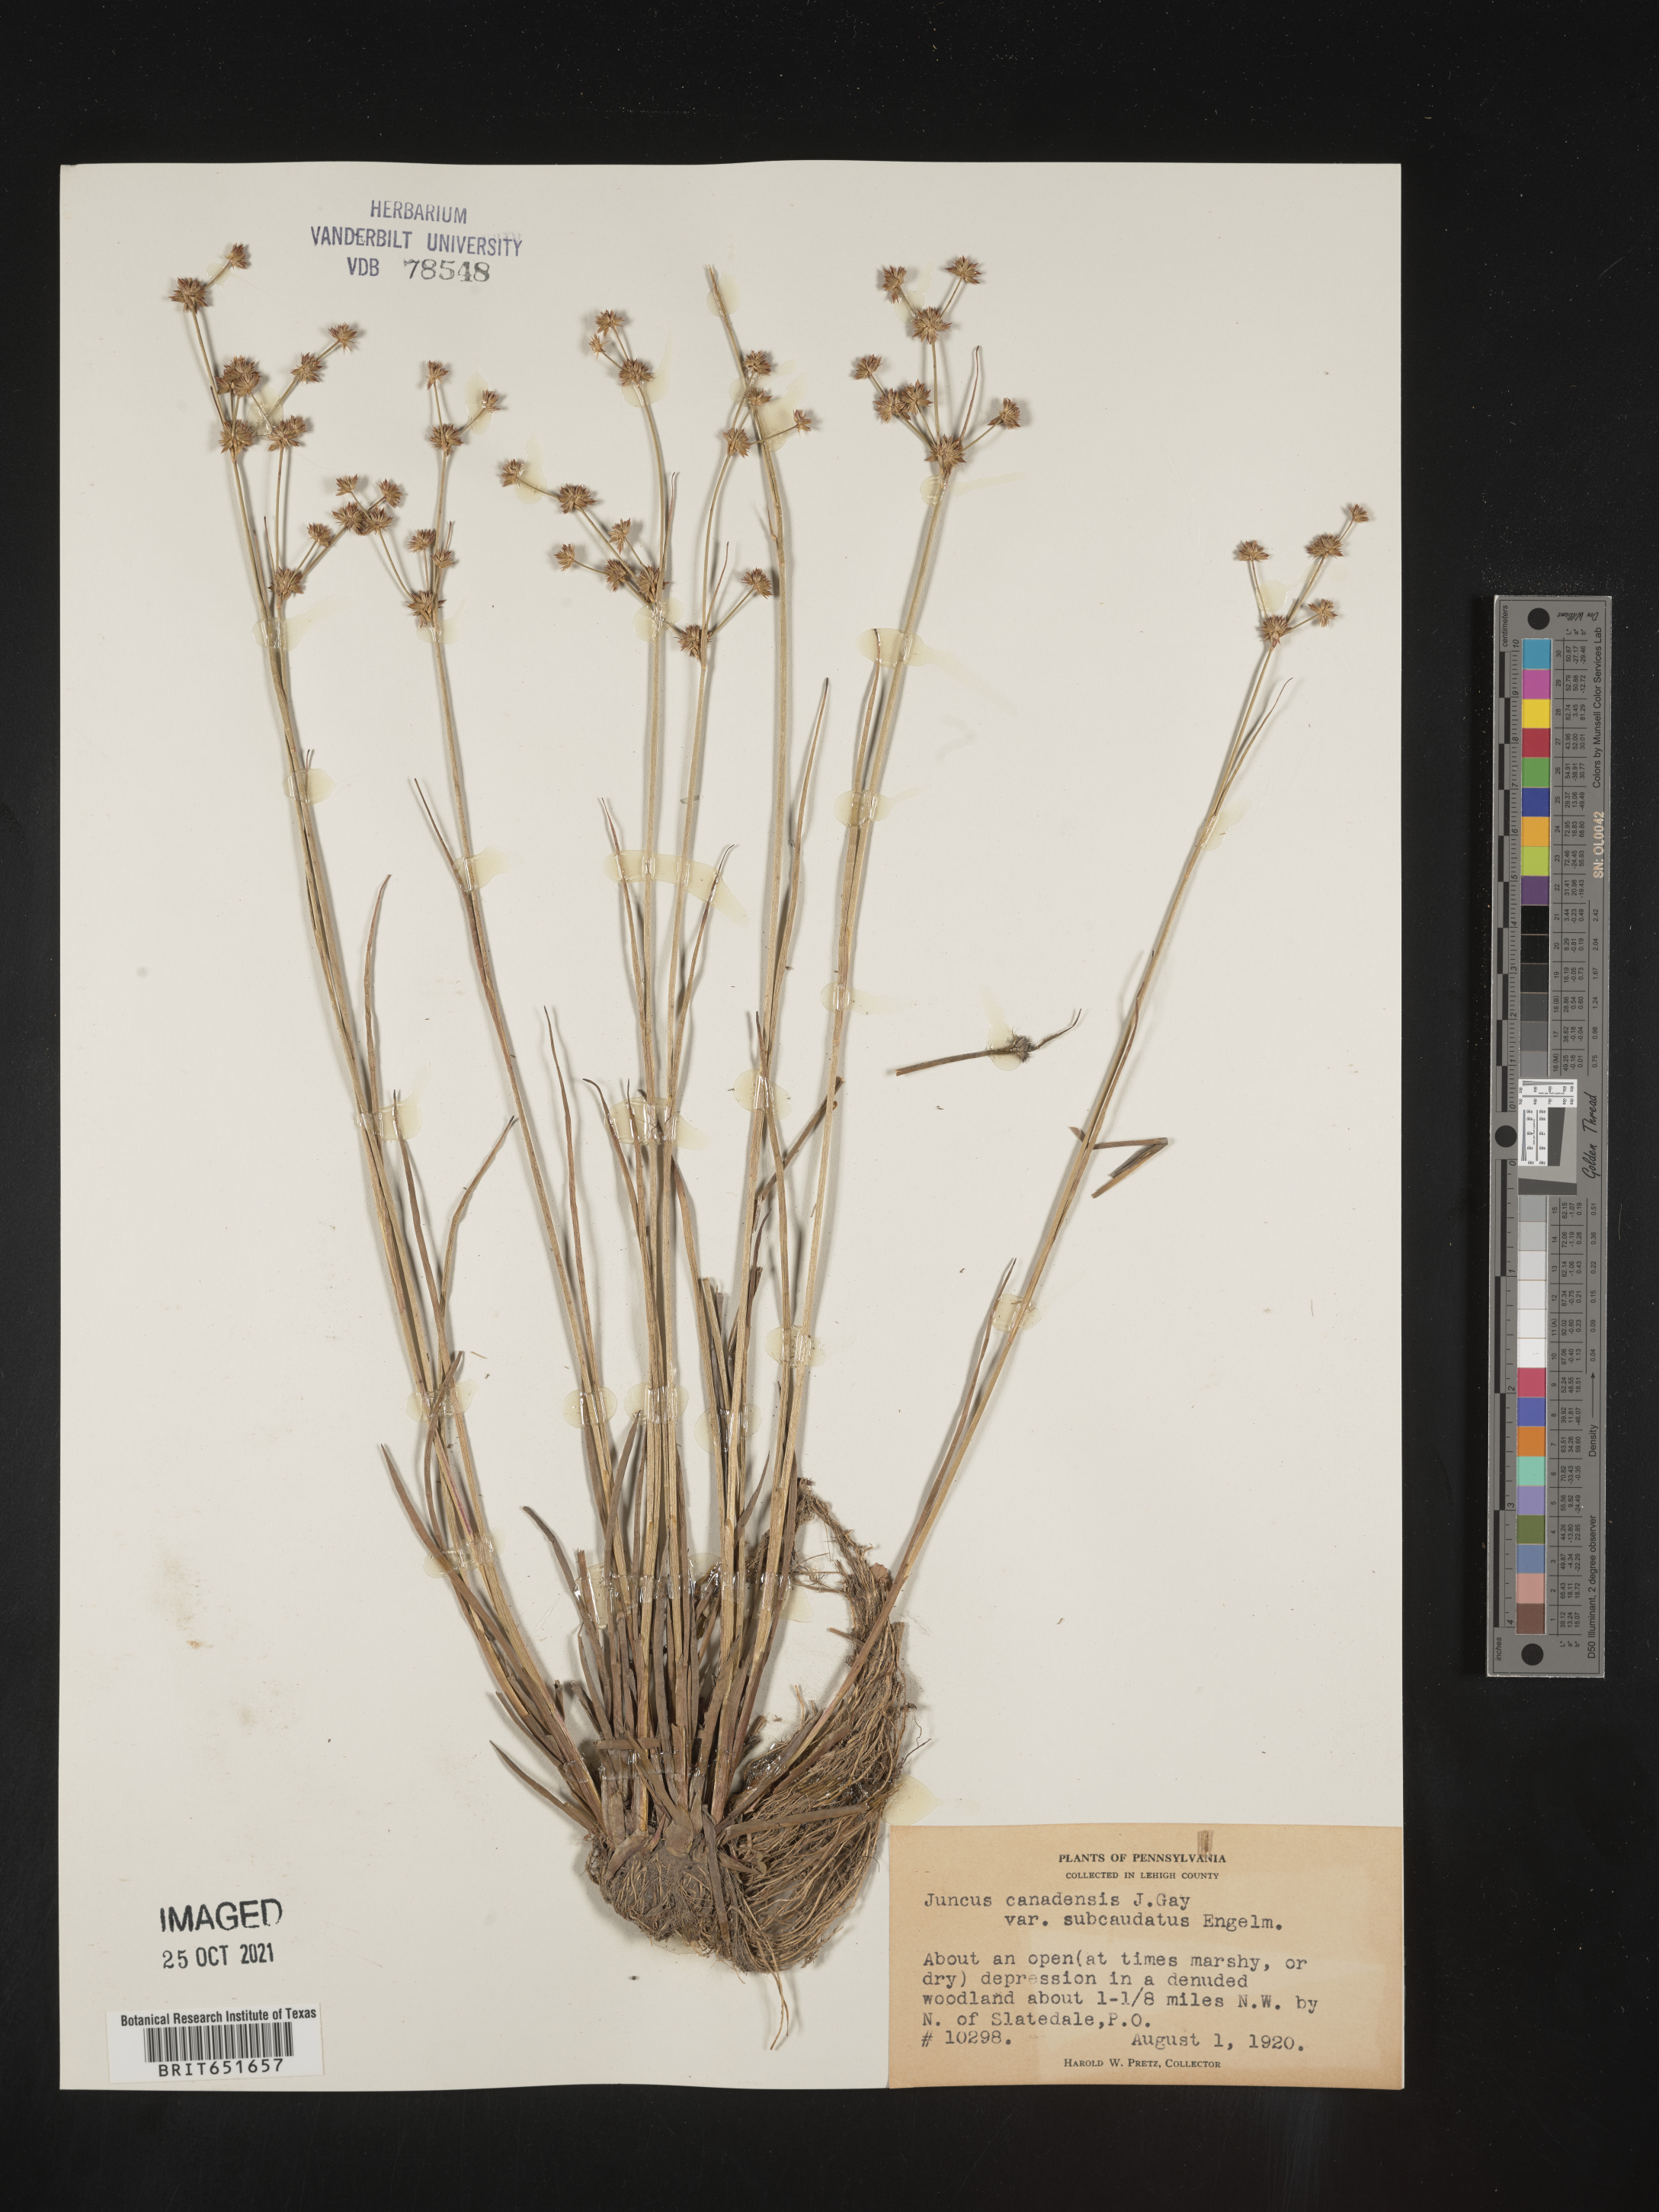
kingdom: Plantae
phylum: Tracheophyta
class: Liliopsida
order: Poales
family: Juncaceae
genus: Juncus
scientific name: Juncus canadensis
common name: Canada rush
